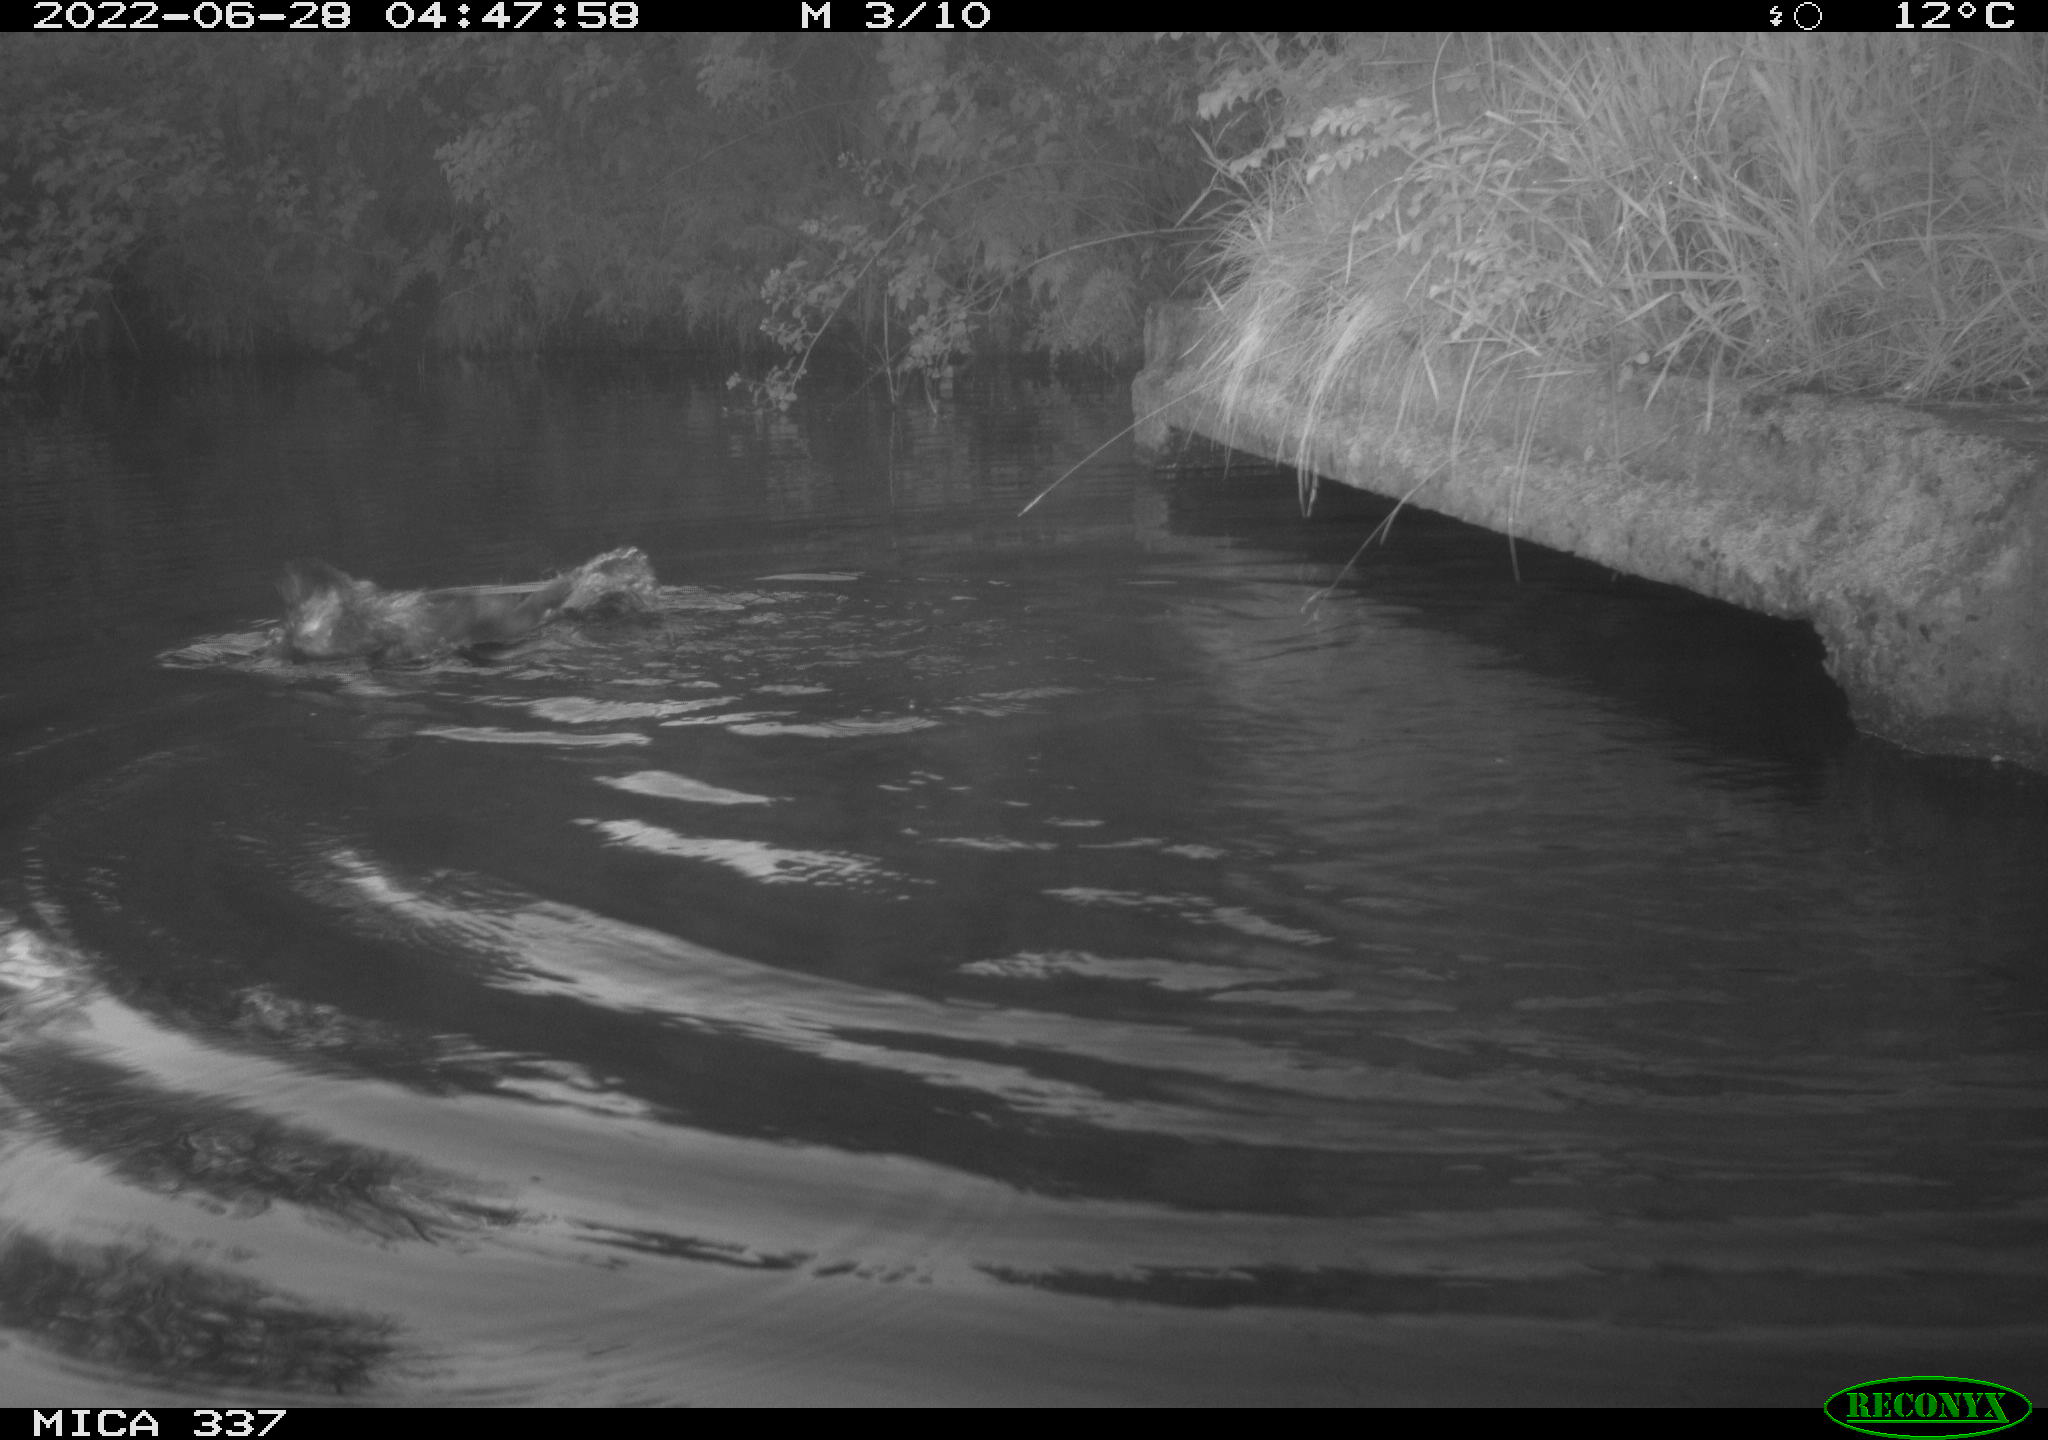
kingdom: Animalia
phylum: Chordata
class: Aves
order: Anseriformes
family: Anatidae
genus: Anas
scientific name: Anas platyrhynchos
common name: Mallard
